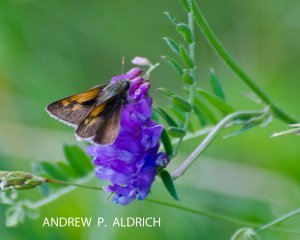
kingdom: Animalia
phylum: Arthropoda
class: Insecta
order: Lepidoptera
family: Hesperiidae
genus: Polites
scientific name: Polites themistocles
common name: Tawny-edged Skipper
